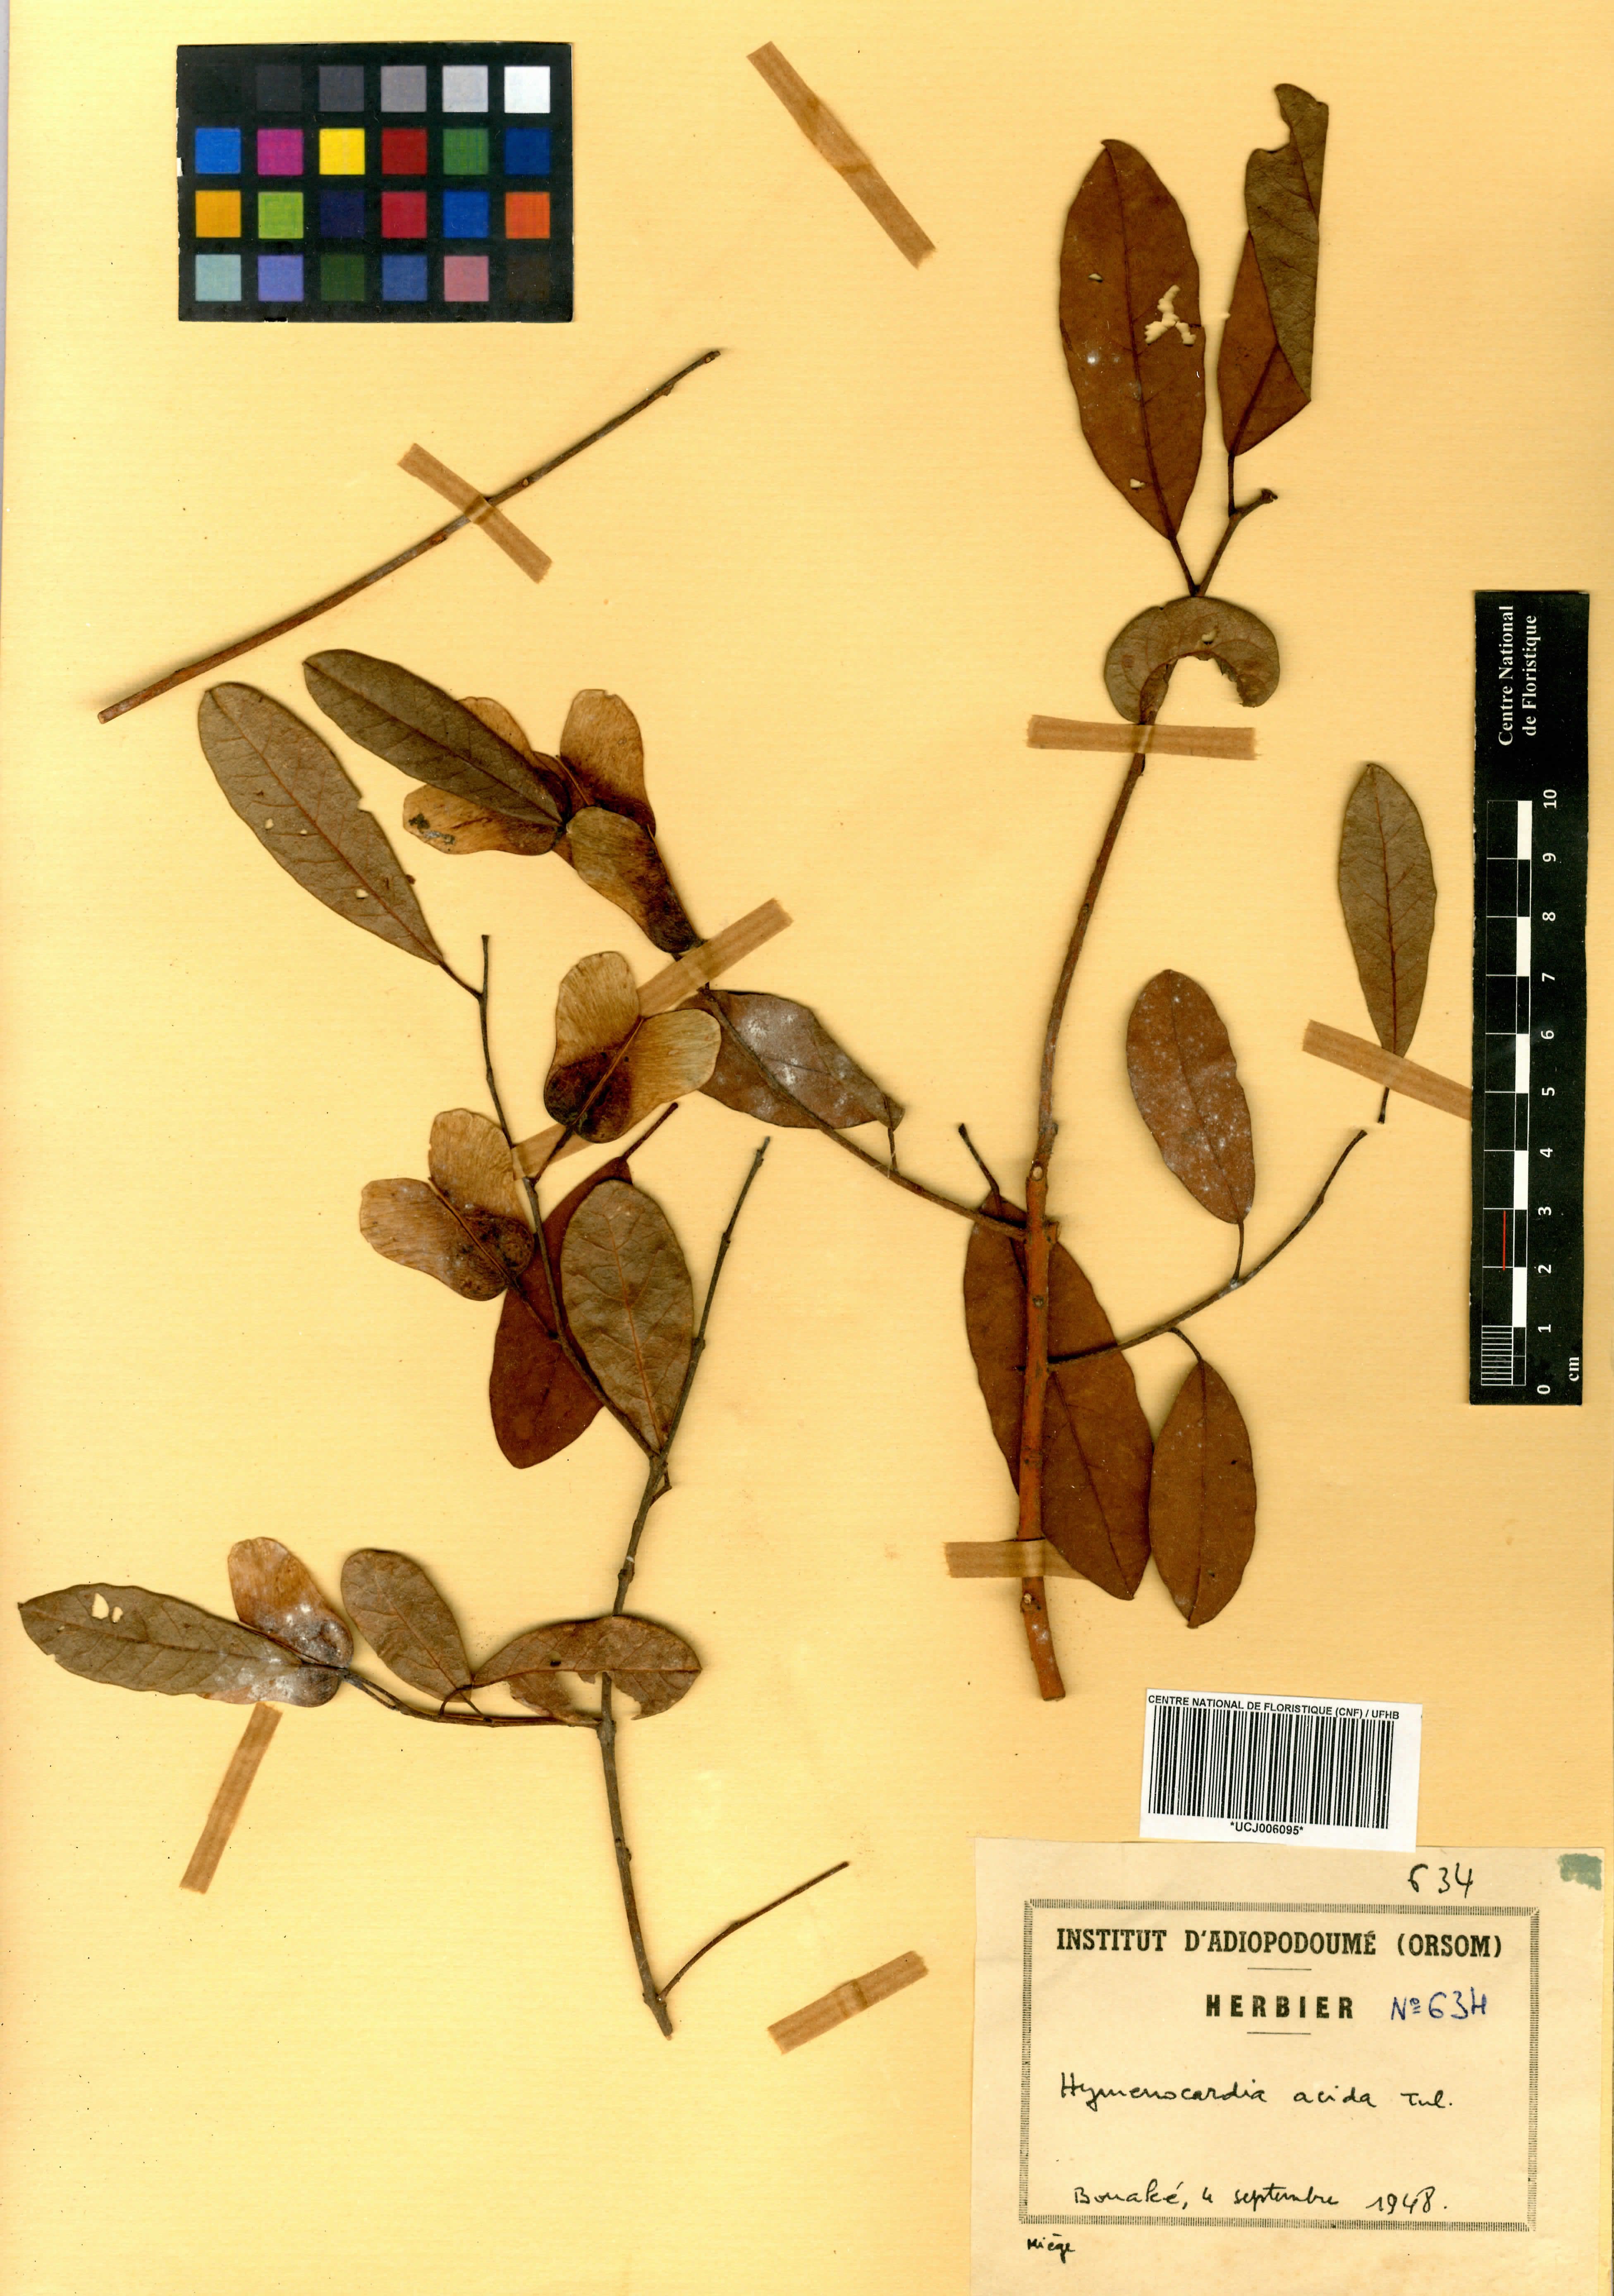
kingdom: Plantae
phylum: Tracheophyta
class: Magnoliopsida
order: Malpighiales
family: Phyllanthaceae
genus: Hymenocardia
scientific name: Hymenocardia acida
